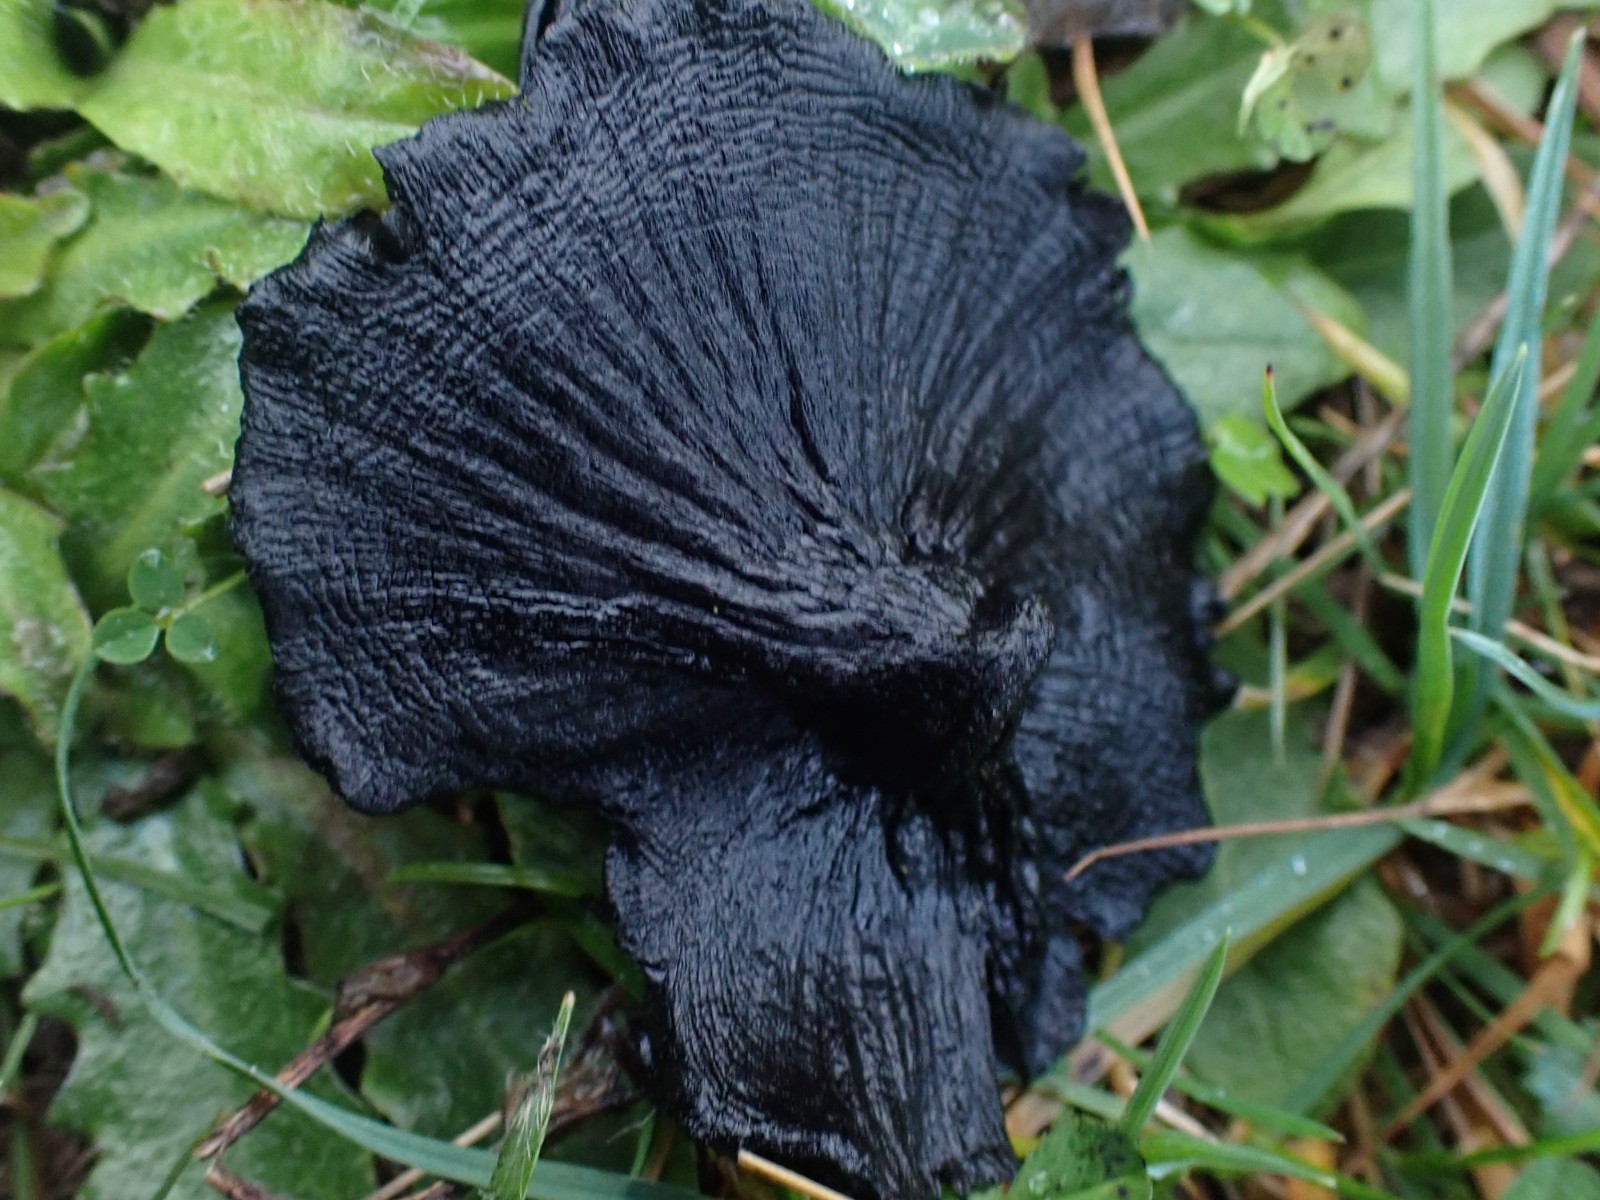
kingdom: Fungi
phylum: Basidiomycota
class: Agaricomycetes
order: Agaricales
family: Hygrophoraceae
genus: Hygrocybe
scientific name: Hygrocybe conica
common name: kegle-vokshat
